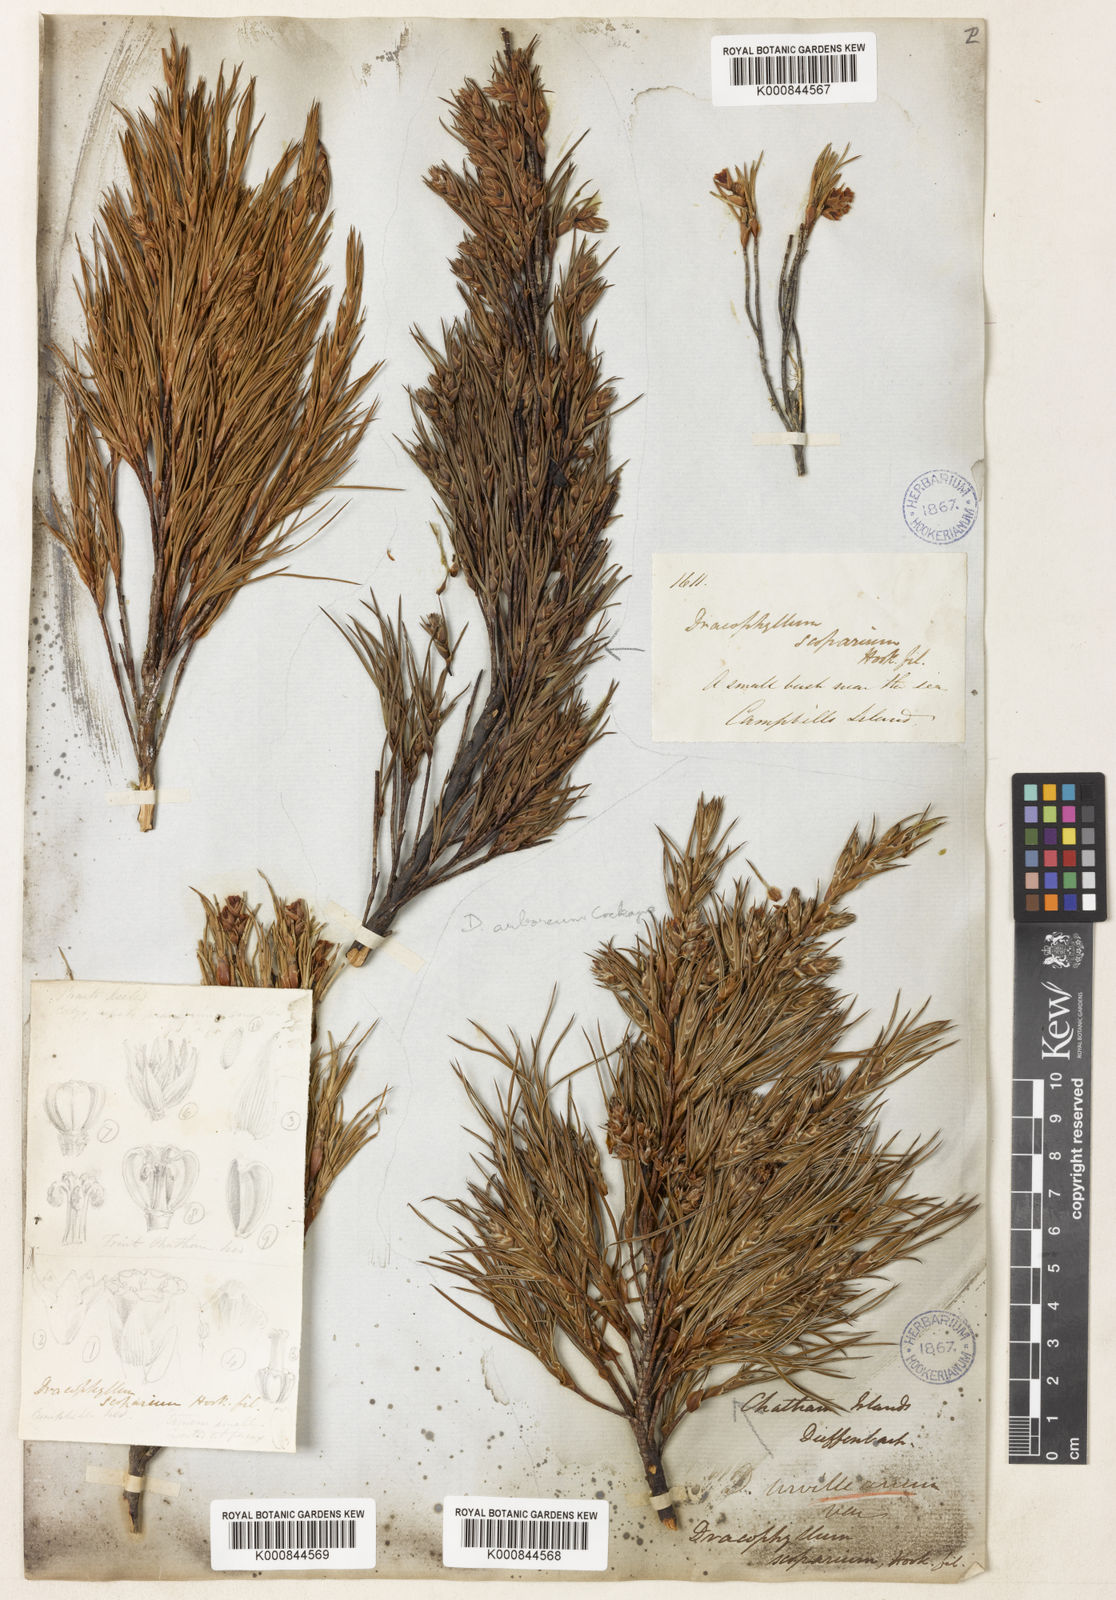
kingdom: Plantae
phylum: Tracheophyta
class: Magnoliopsida
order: Ericales
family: Ericaceae
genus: Dracophyllum
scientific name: Dracophyllum scoparium
